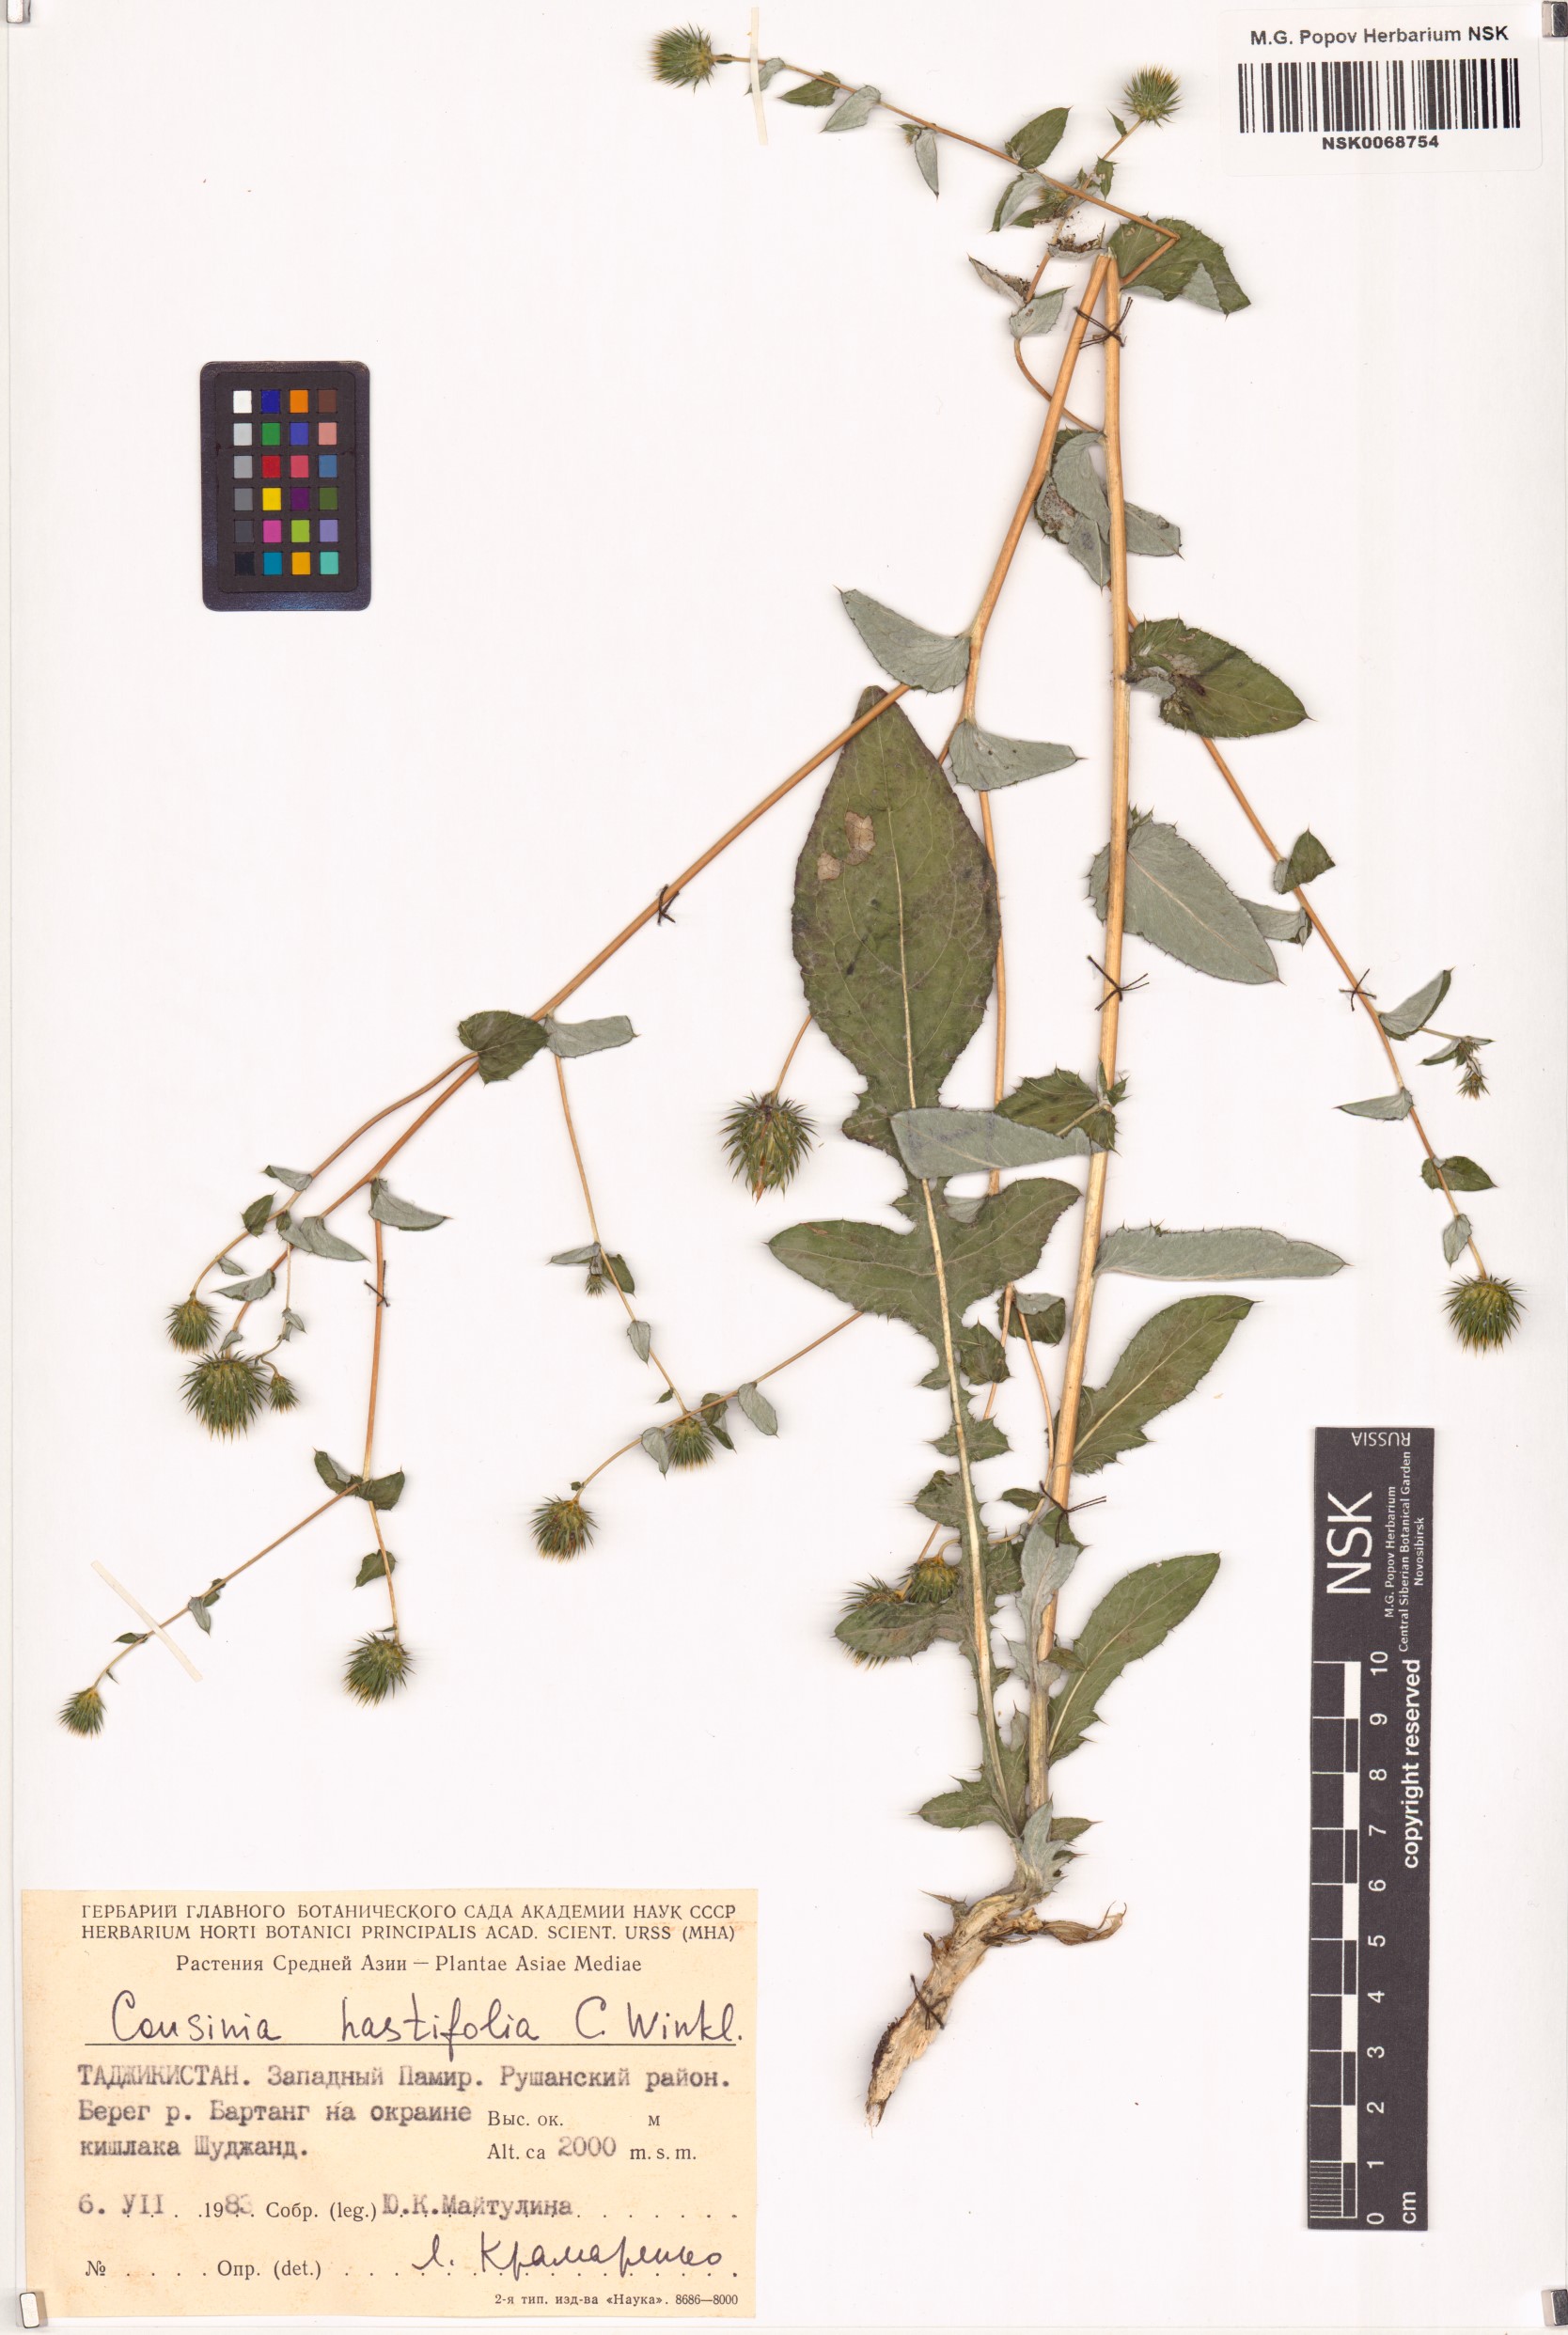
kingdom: Plantae
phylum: Tracheophyta
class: Magnoliopsida
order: Asterales
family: Asteraceae
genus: Cousinia
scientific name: Cousinia hastifolia
